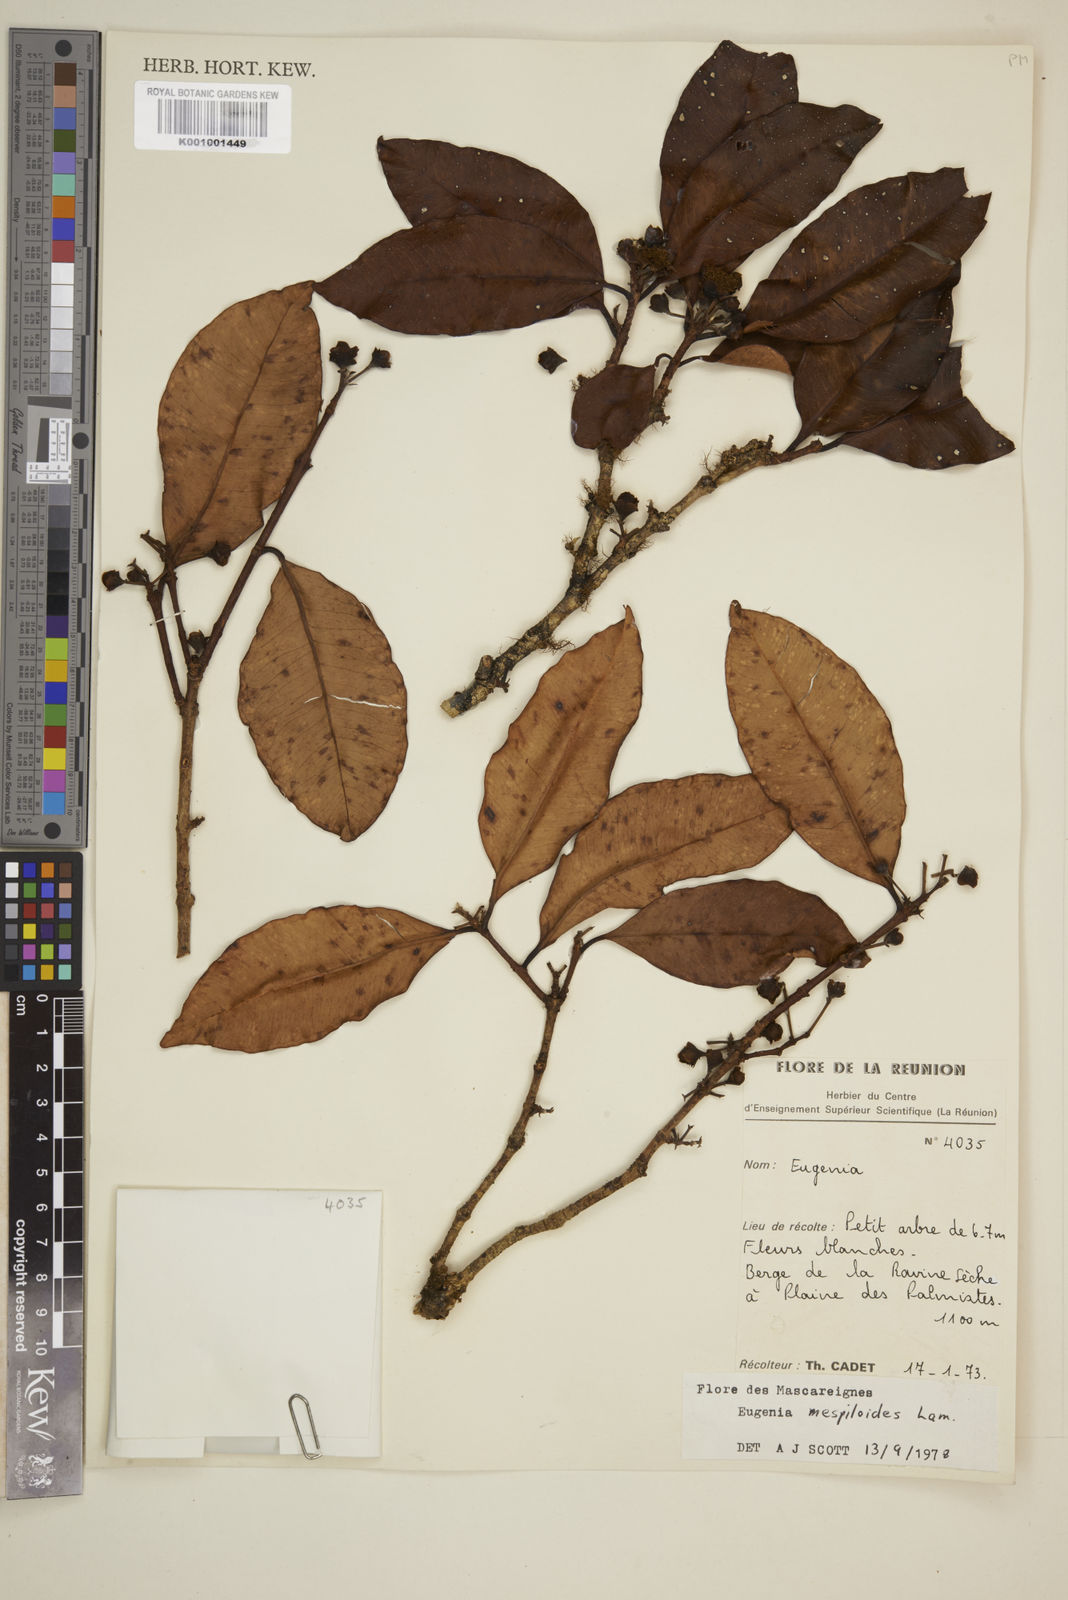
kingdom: Plantae
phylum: Tracheophyta
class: Magnoliopsida
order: Myrtales
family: Myrtaceae
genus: Eugenia
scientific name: Eugenia mespiloides
